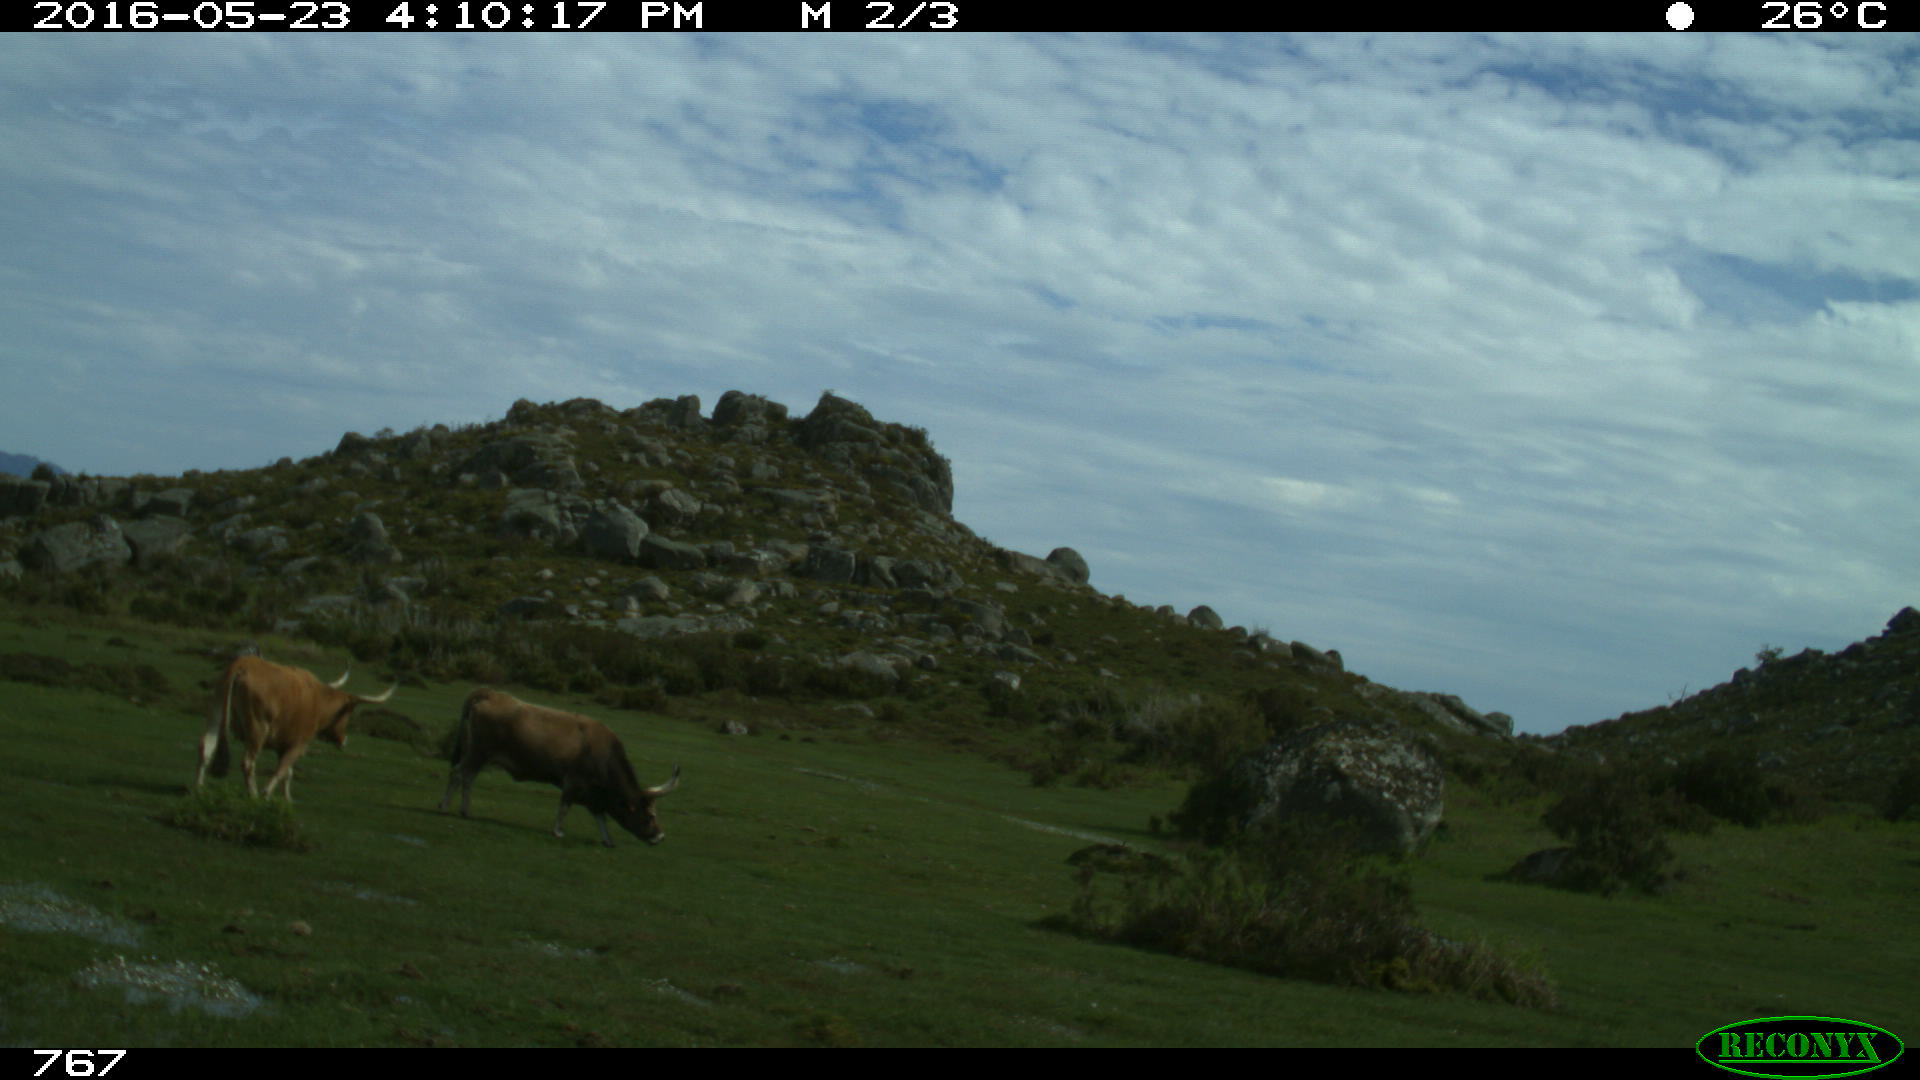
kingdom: Animalia
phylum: Chordata
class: Mammalia
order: Artiodactyla
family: Bovidae
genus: Bos
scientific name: Bos taurus
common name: Domesticated cattle
